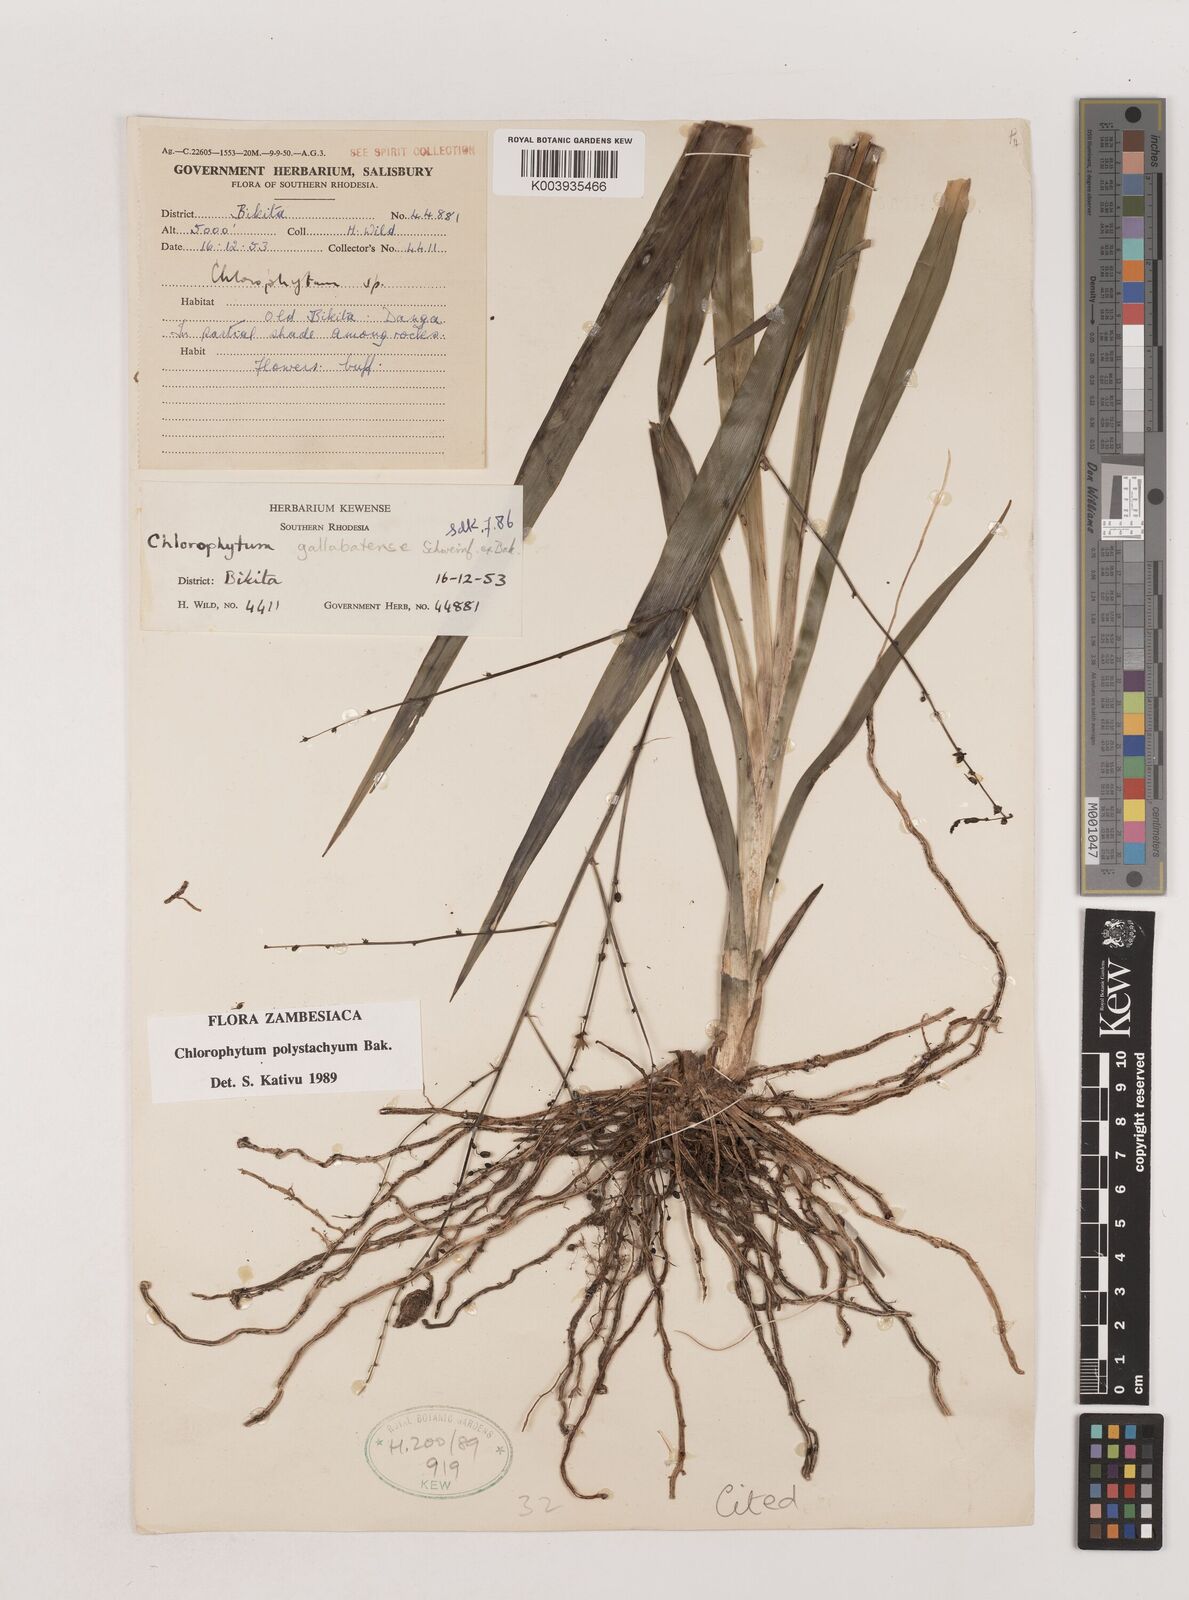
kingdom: Plantae
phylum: Tracheophyta
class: Liliopsida
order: Asparagales
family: Asparagaceae
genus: Chlorophytum
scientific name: Chlorophytum polystachys
